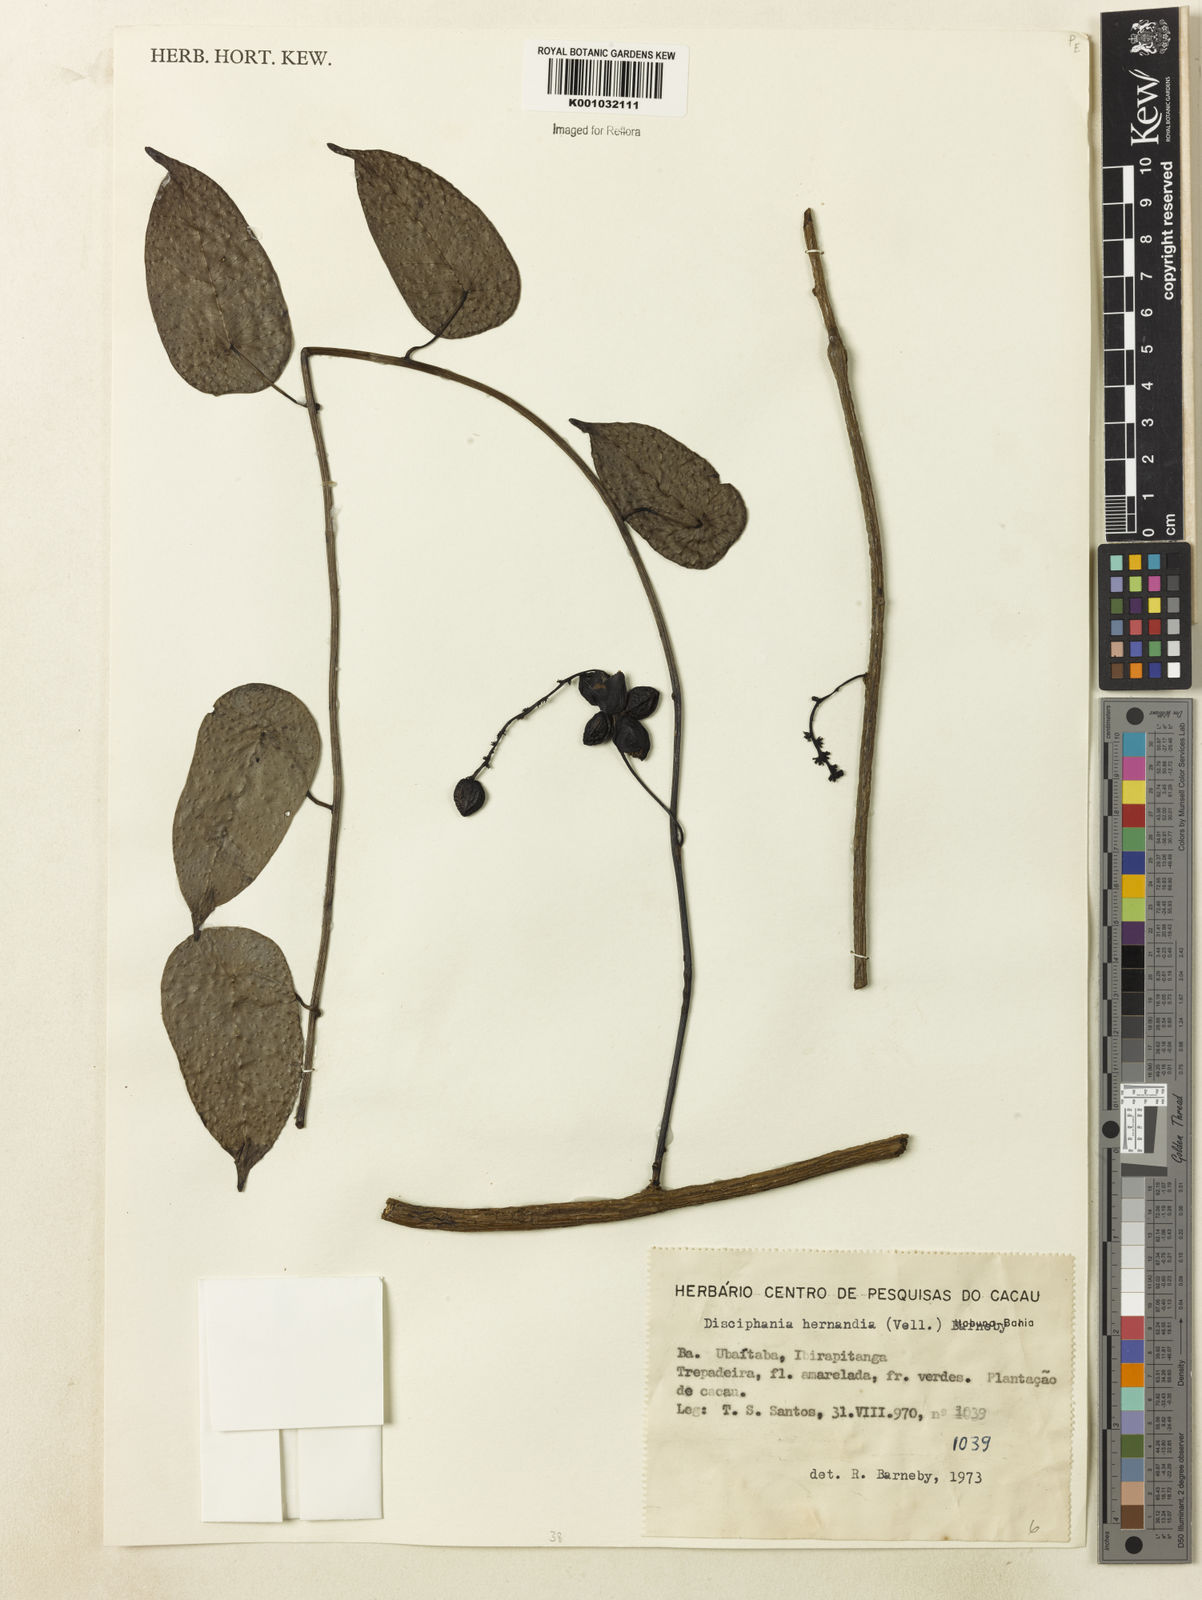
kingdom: Plantae
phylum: Tracheophyta
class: Magnoliopsida
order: Ranunculales
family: Menispermaceae
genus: Disciphania
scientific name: Disciphania hernandia
